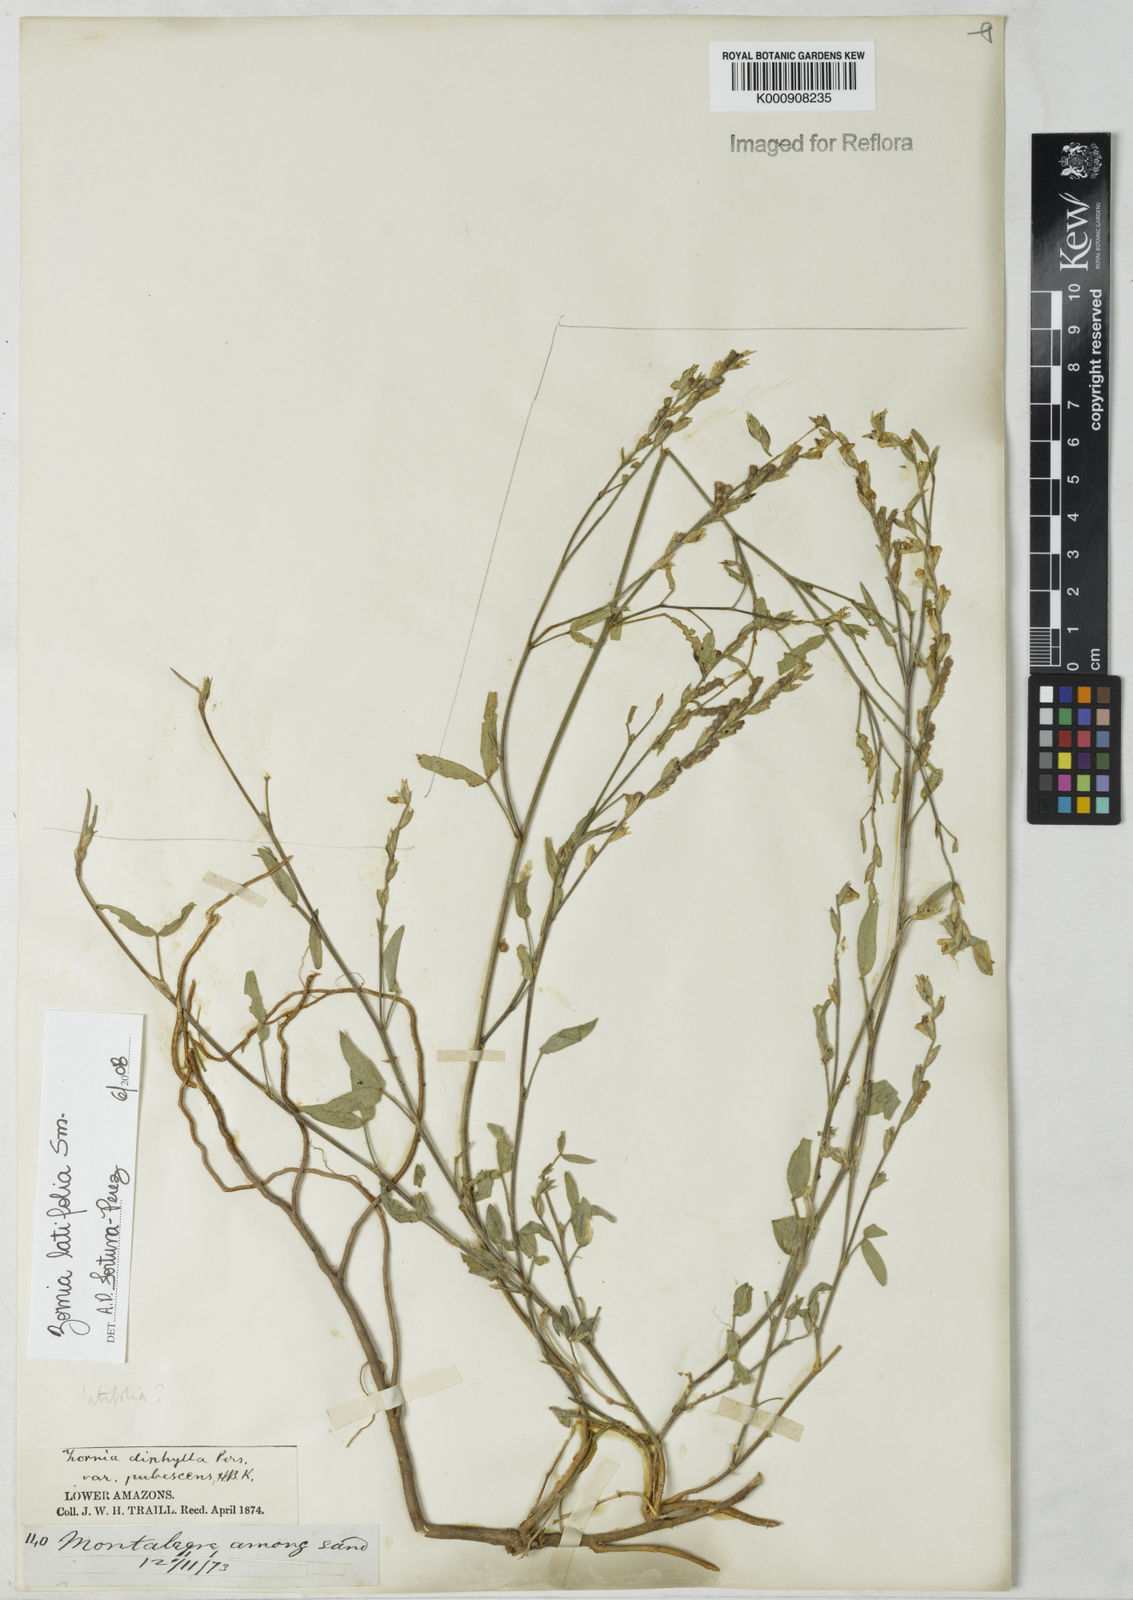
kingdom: Plantae
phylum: Tracheophyta
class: Magnoliopsida
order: Fabales
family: Fabaceae
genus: Zornia
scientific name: Zornia
